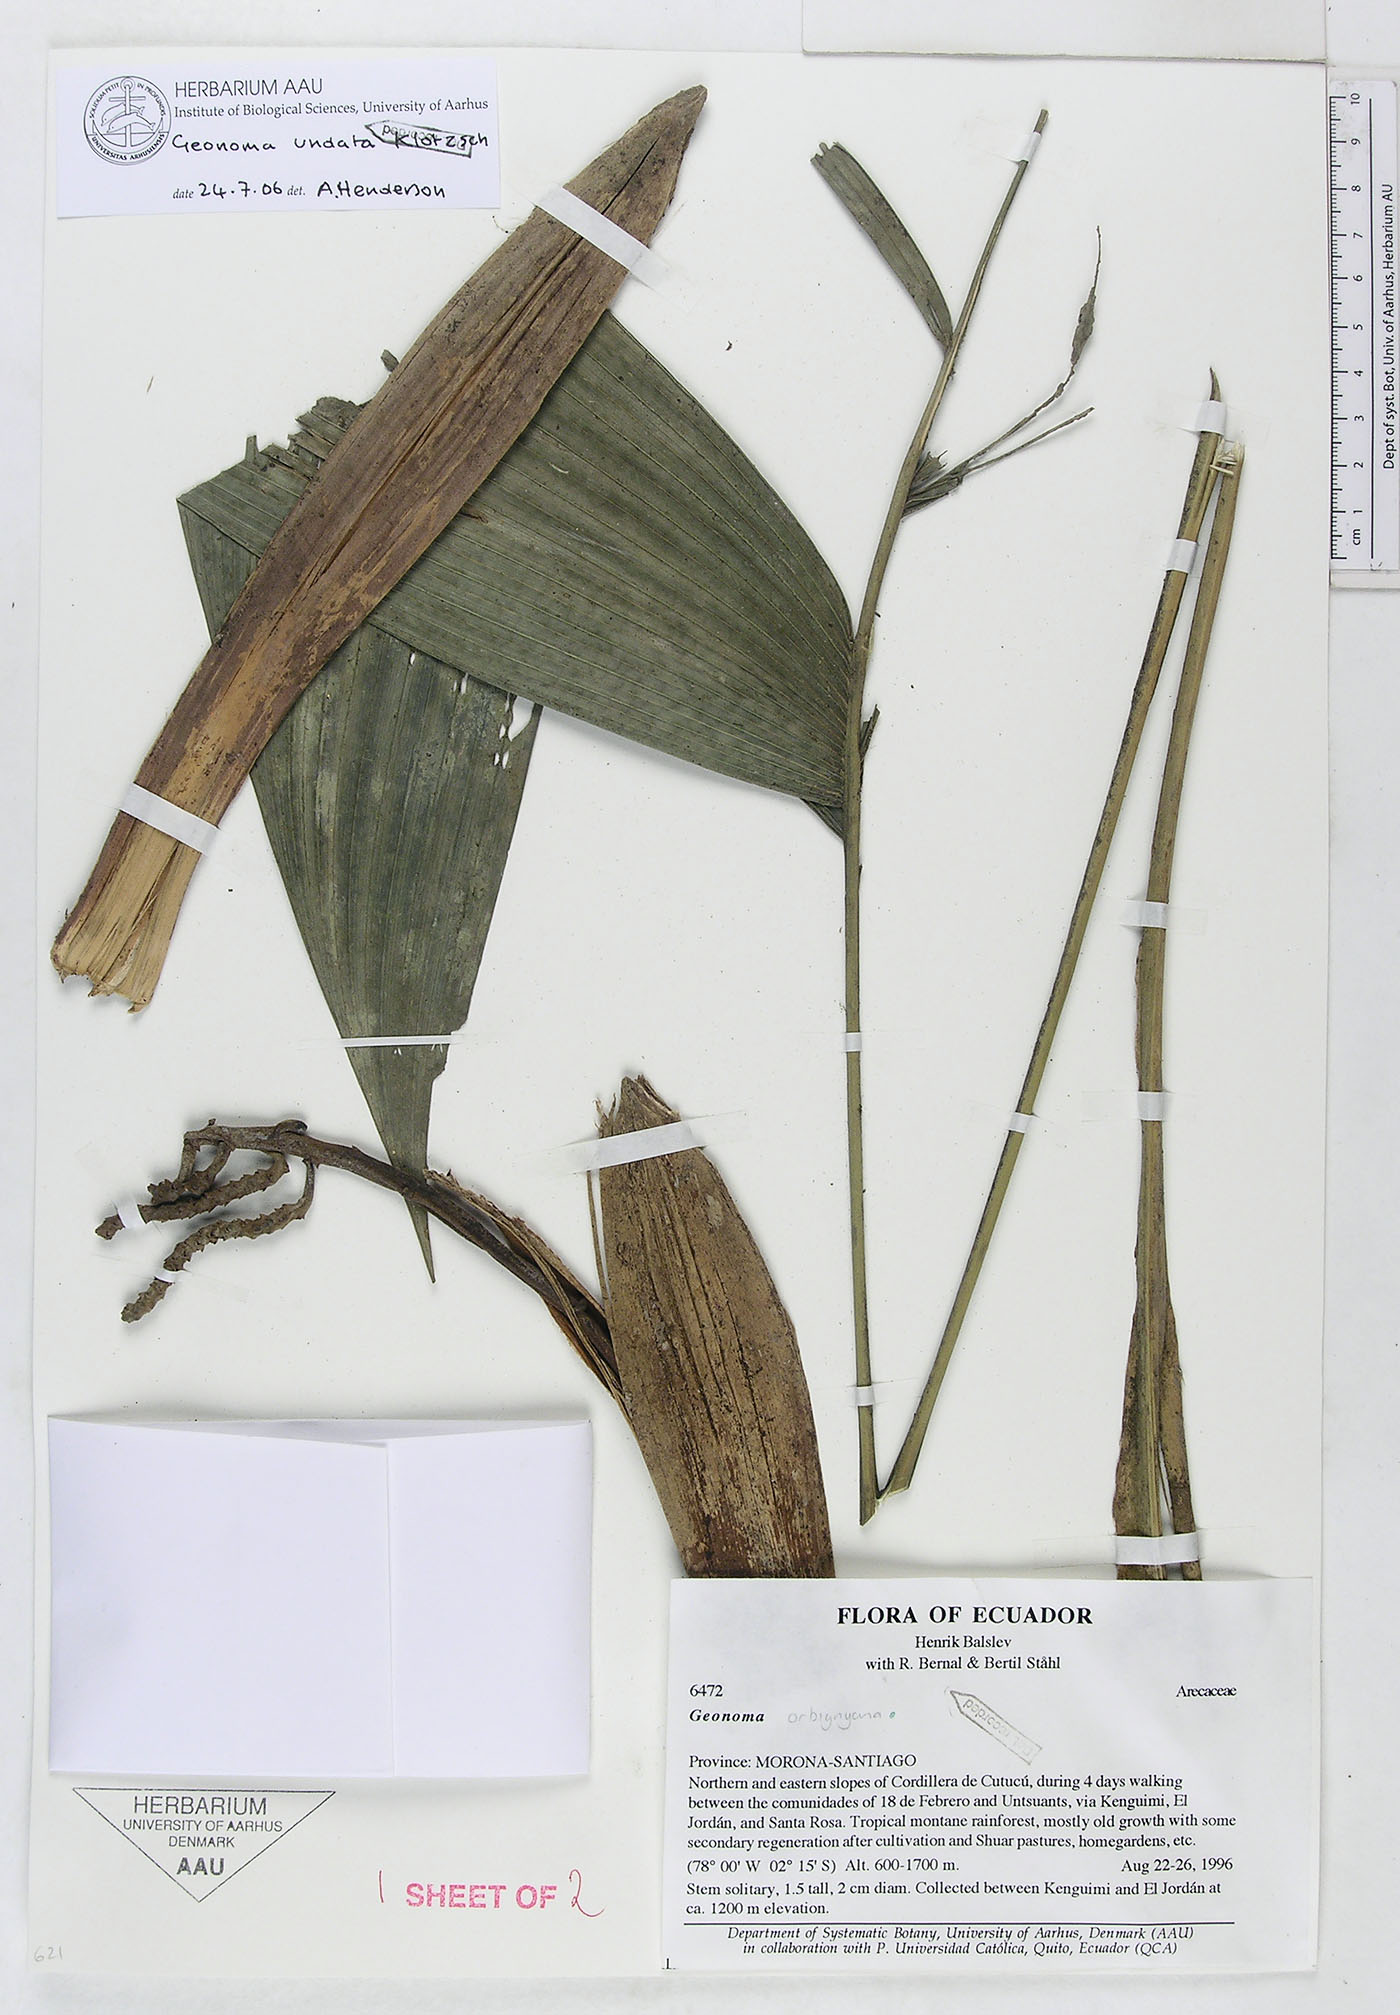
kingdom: Plantae
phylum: Tracheophyta
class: Liliopsida
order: Arecales
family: Arecaceae
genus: Geonoma
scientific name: Geonoma undata
